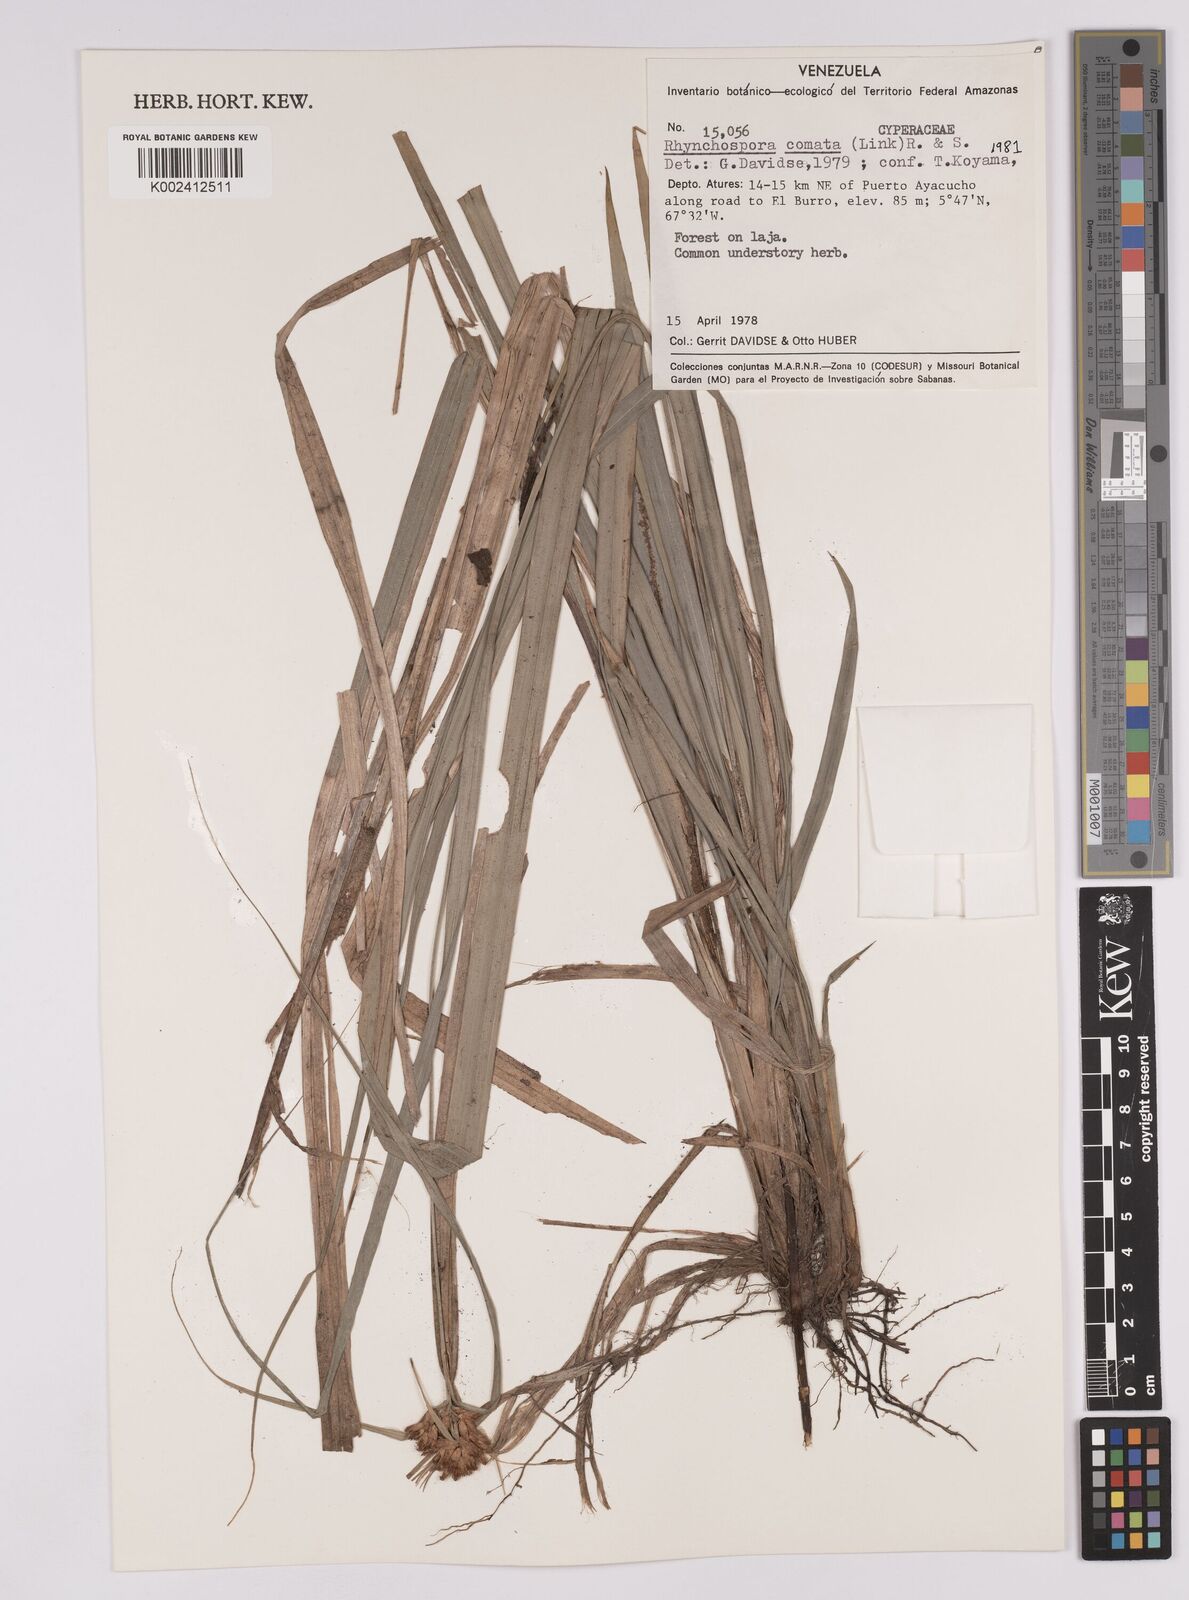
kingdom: Plantae
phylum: Tracheophyta
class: Liliopsida
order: Poales
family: Cyperaceae
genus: Rhynchospora
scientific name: Rhynchospora comata
